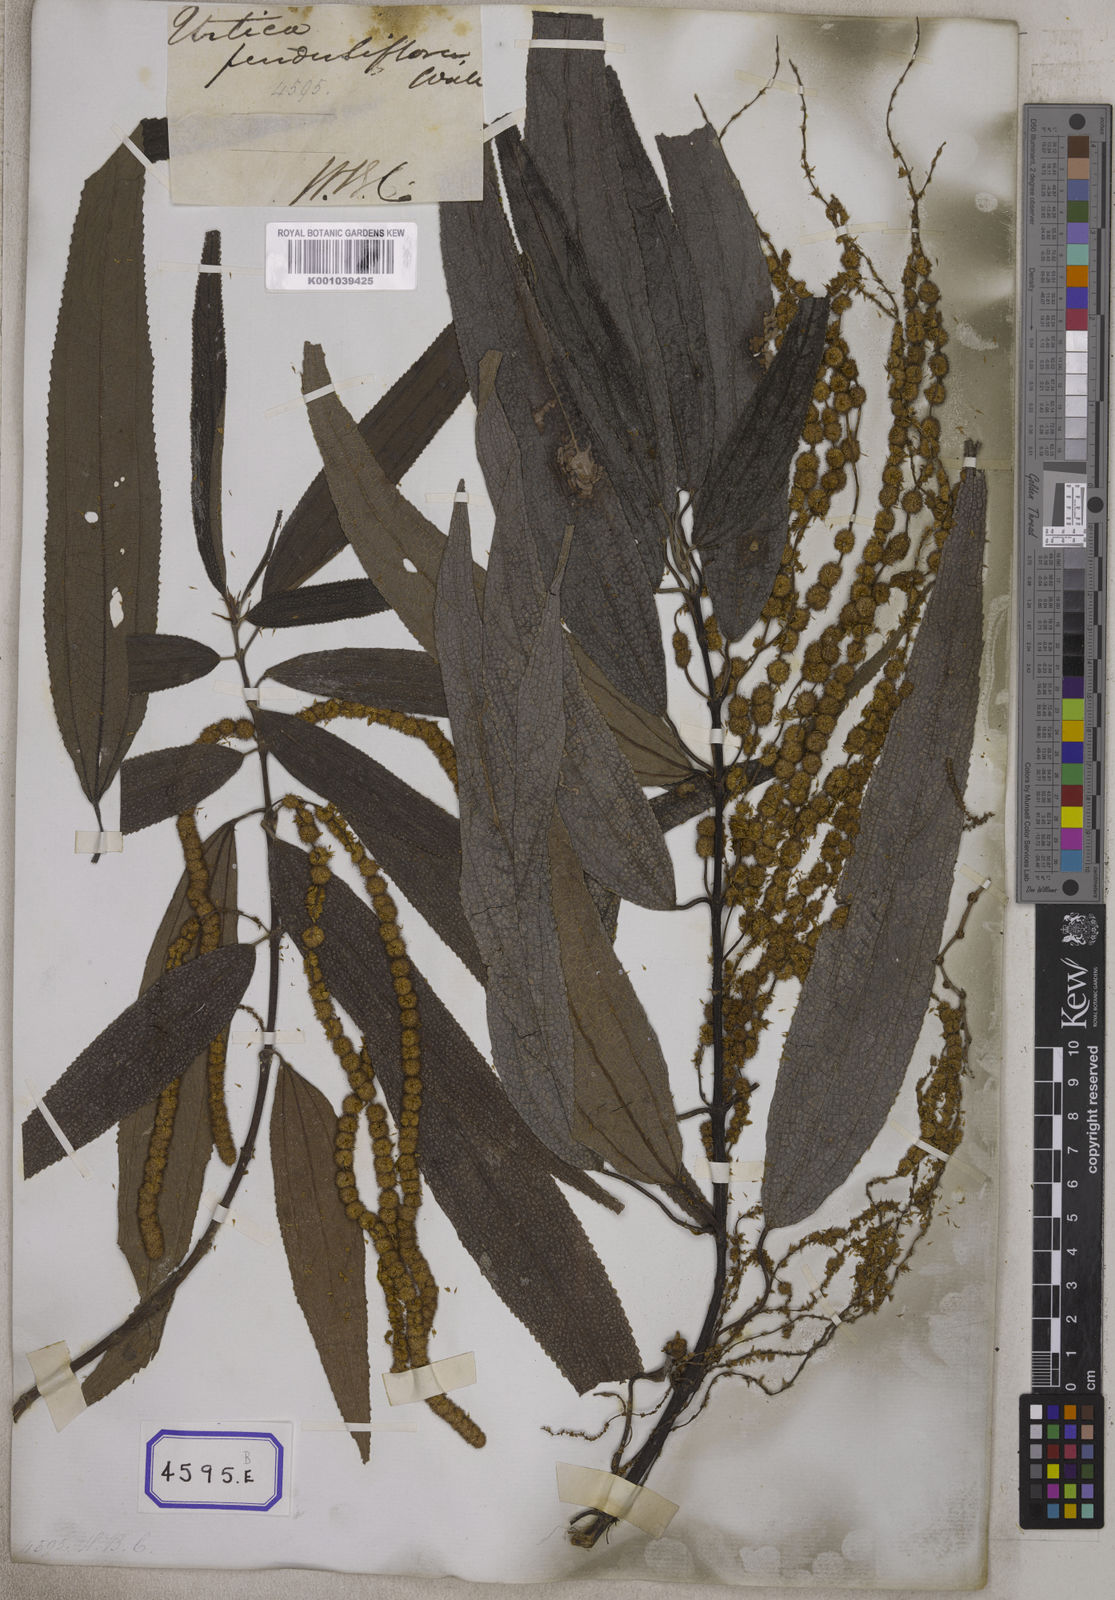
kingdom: Plantae
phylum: Tracheophyta
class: Magnoliopsida
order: Rosales
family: Urticaceae
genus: Boehmeria
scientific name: Boehmeria penduliflora
